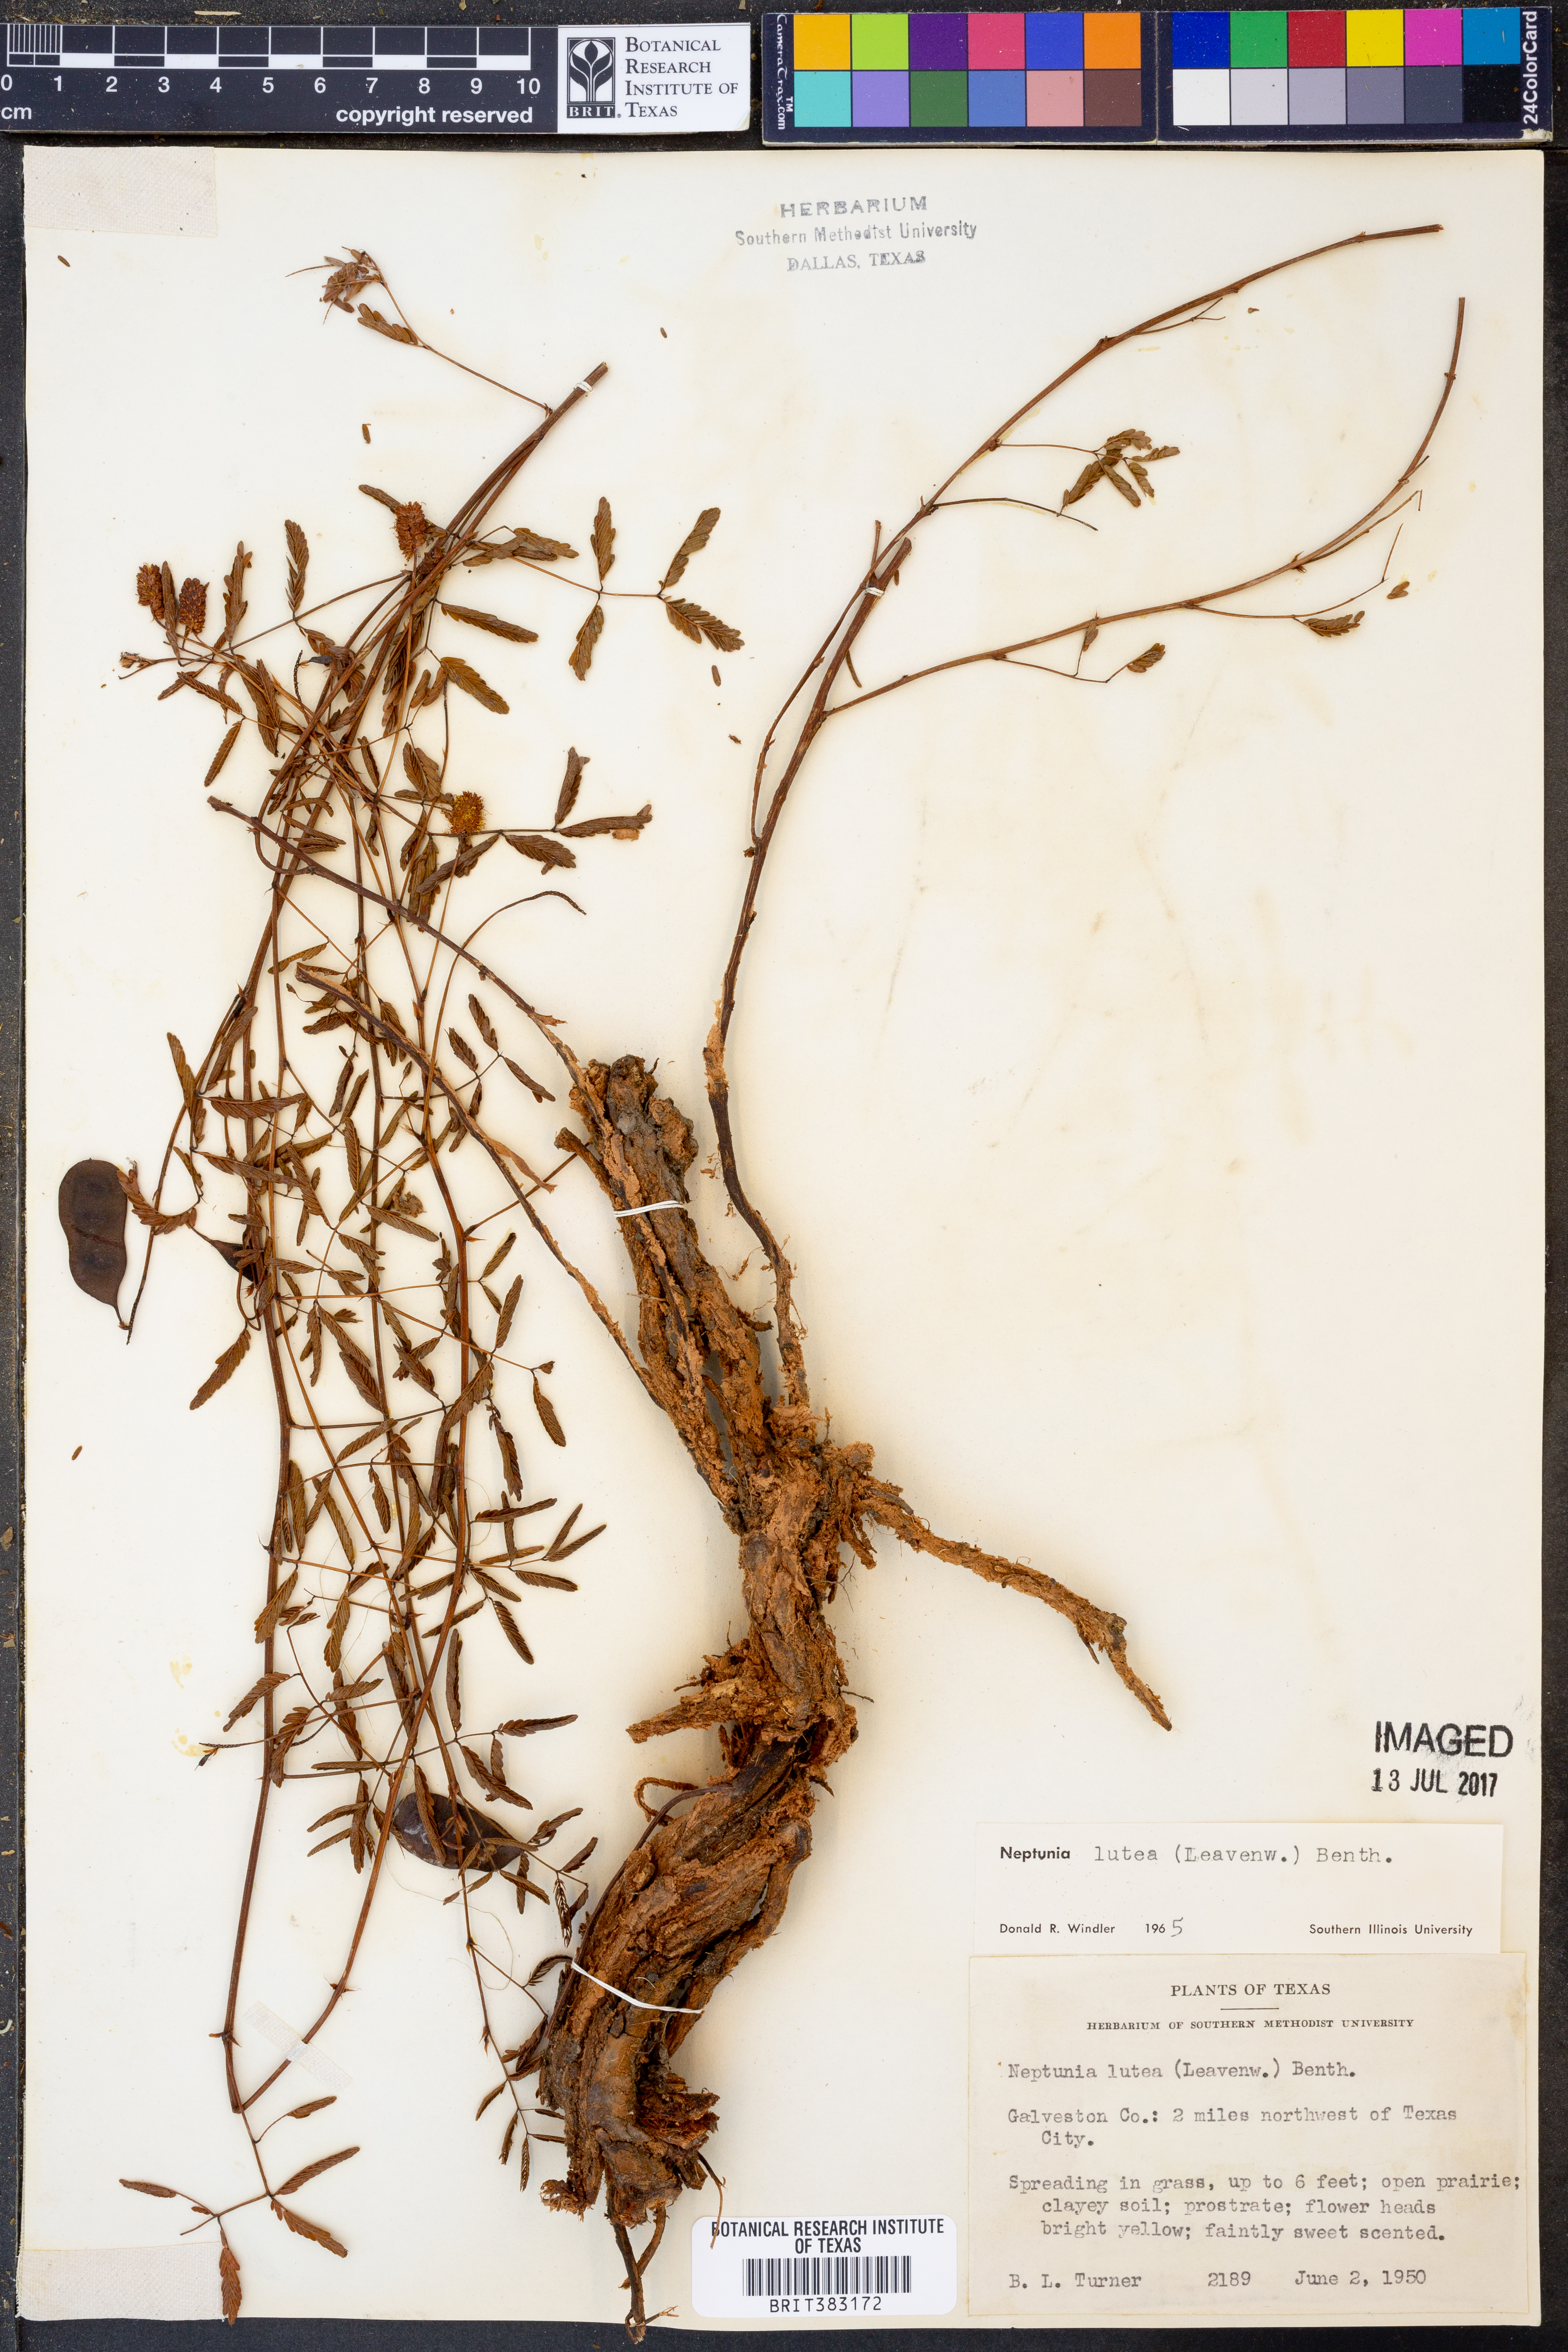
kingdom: Plantae
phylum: Tracheophyta
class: Magnoliopsida
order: Fabales
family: Fabaceae
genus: Neptunia
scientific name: Neptunia lutea
